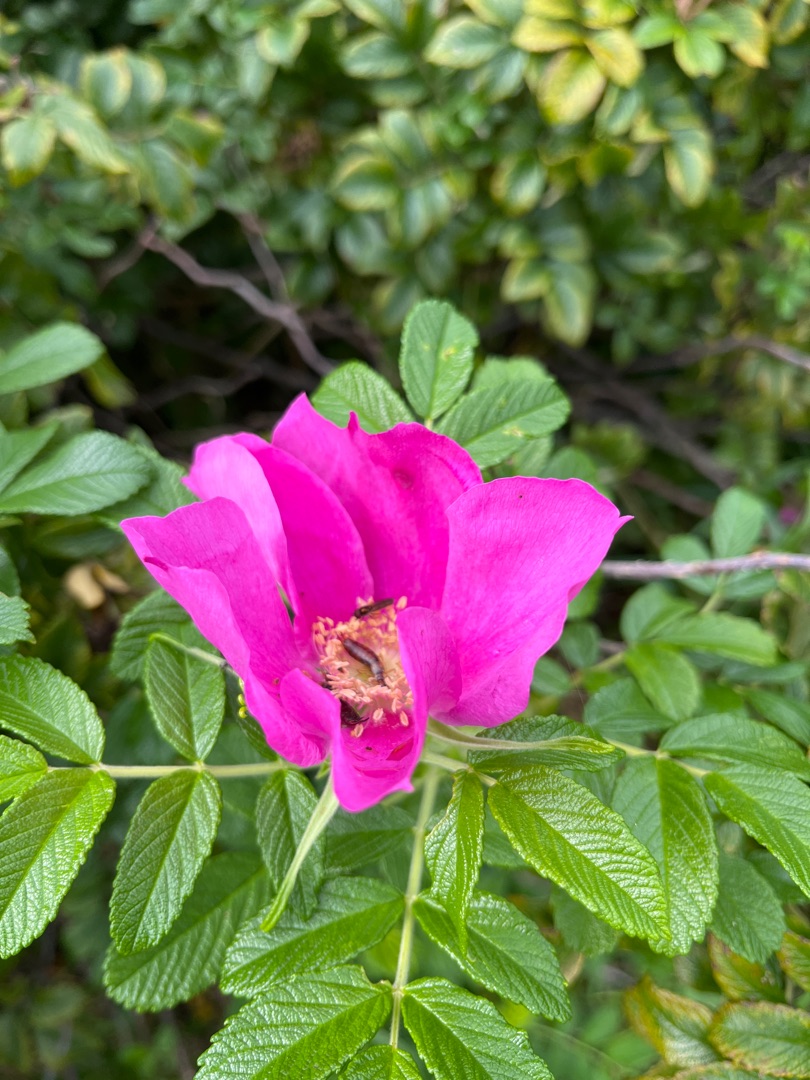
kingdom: Plantae
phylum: Tracheophyta
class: Magnoliopsida
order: Rosales
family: Rosaceae
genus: Rosa
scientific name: Rosa rugosa
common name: Rynket rose
